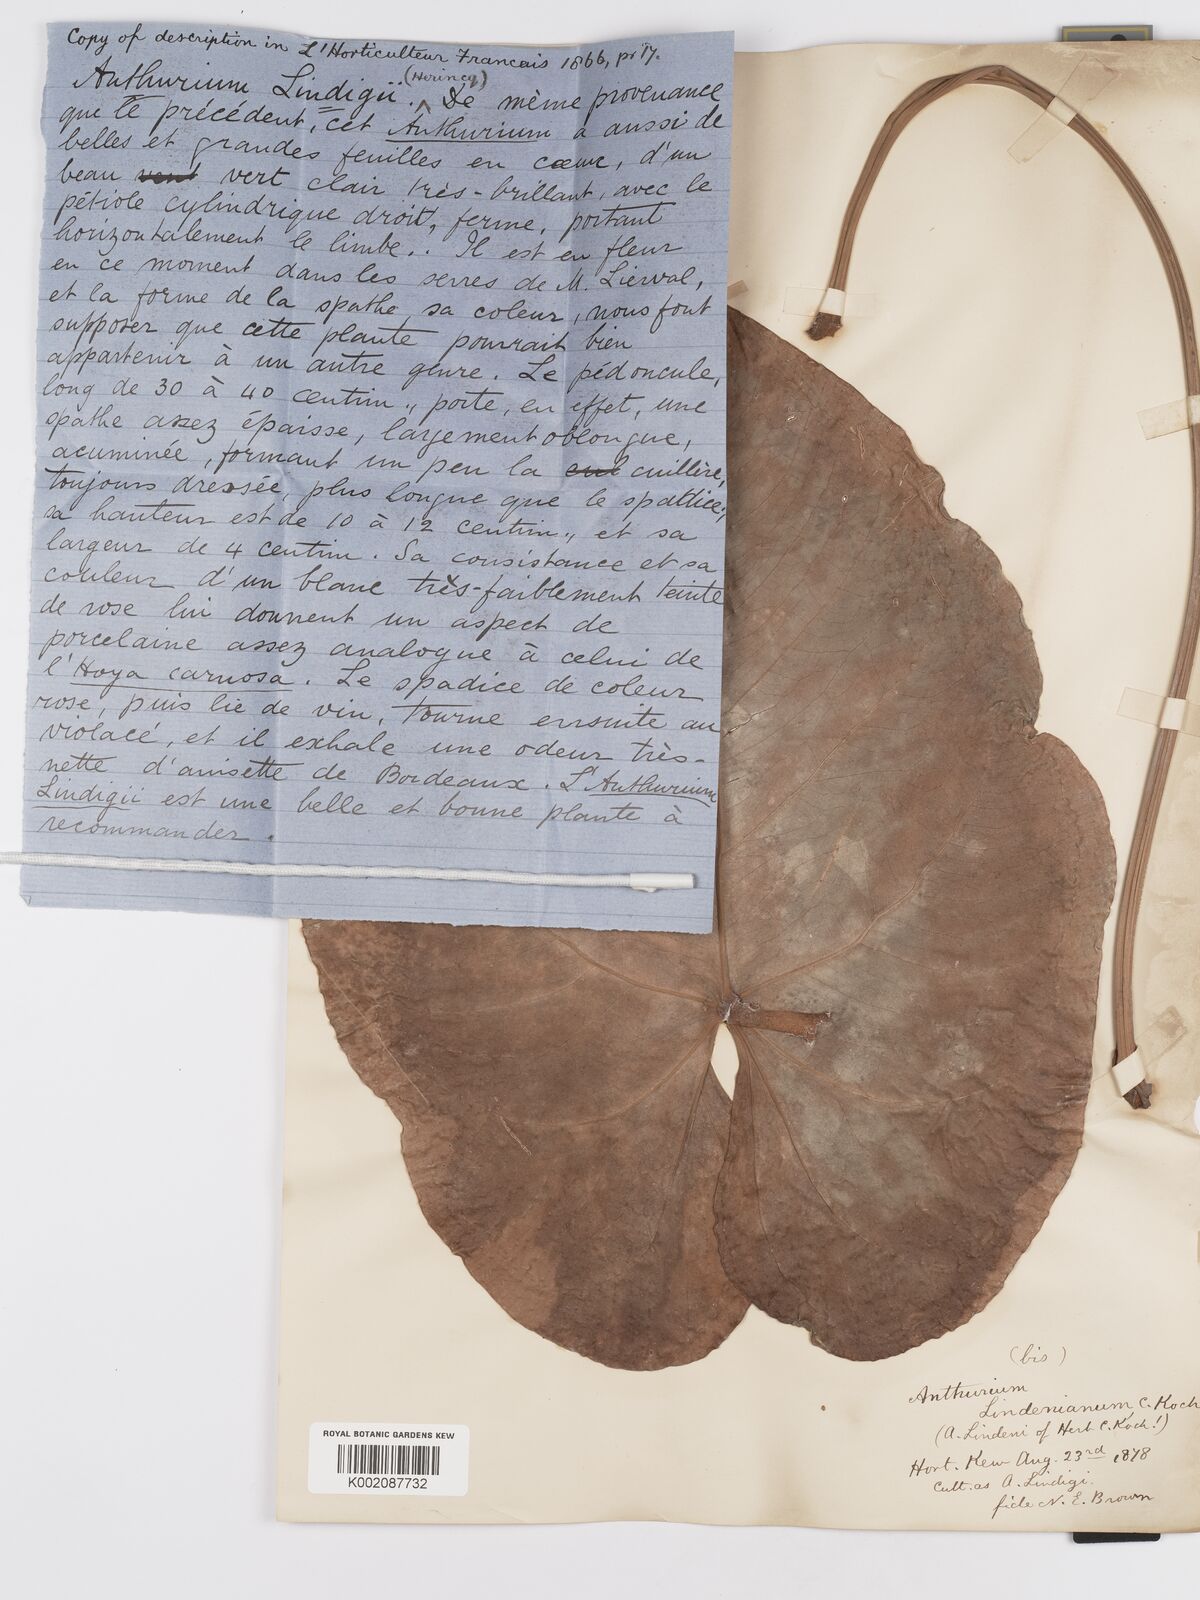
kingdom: Plantae
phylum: Tracheophyta
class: Liliopsida
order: Alismatales
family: Araceae
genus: Anthurium
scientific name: Anthurium lindenianum
